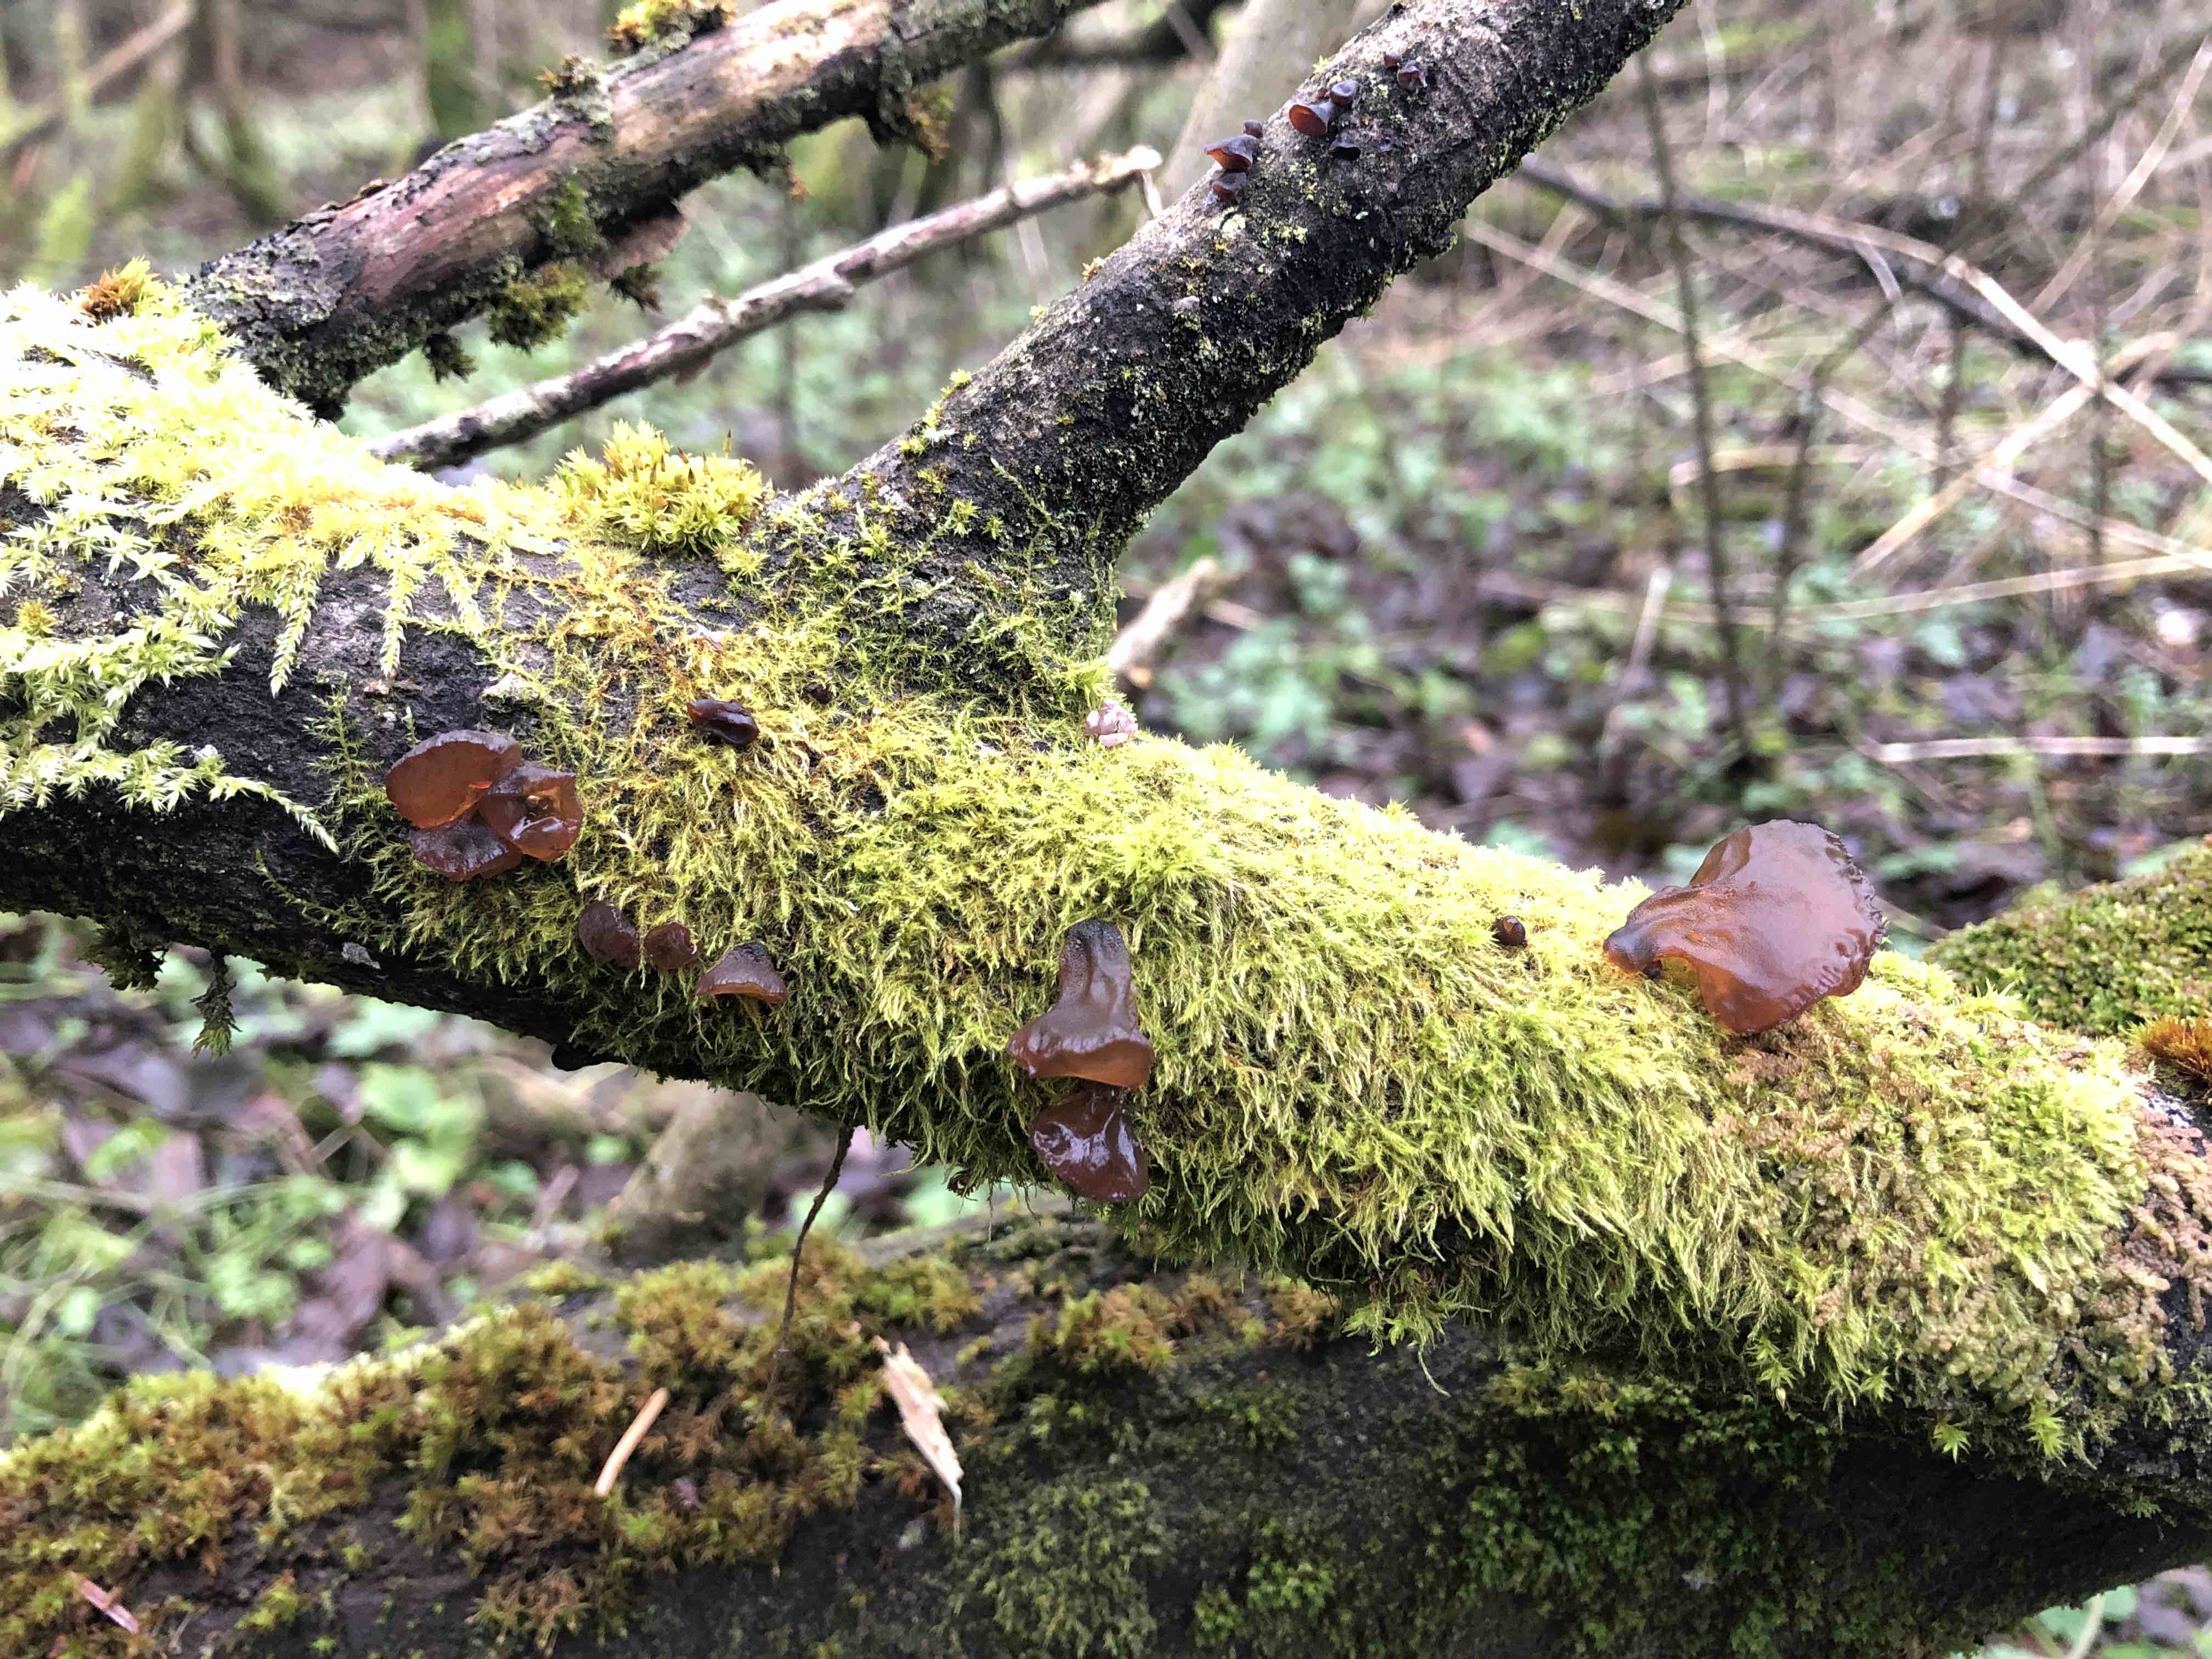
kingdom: Fungi
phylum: Basidiomycota
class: Agaricomycetes
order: Auriculariales
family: Auriculariaceae
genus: Exidia
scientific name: Exidia recisa
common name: pile-bævretop
